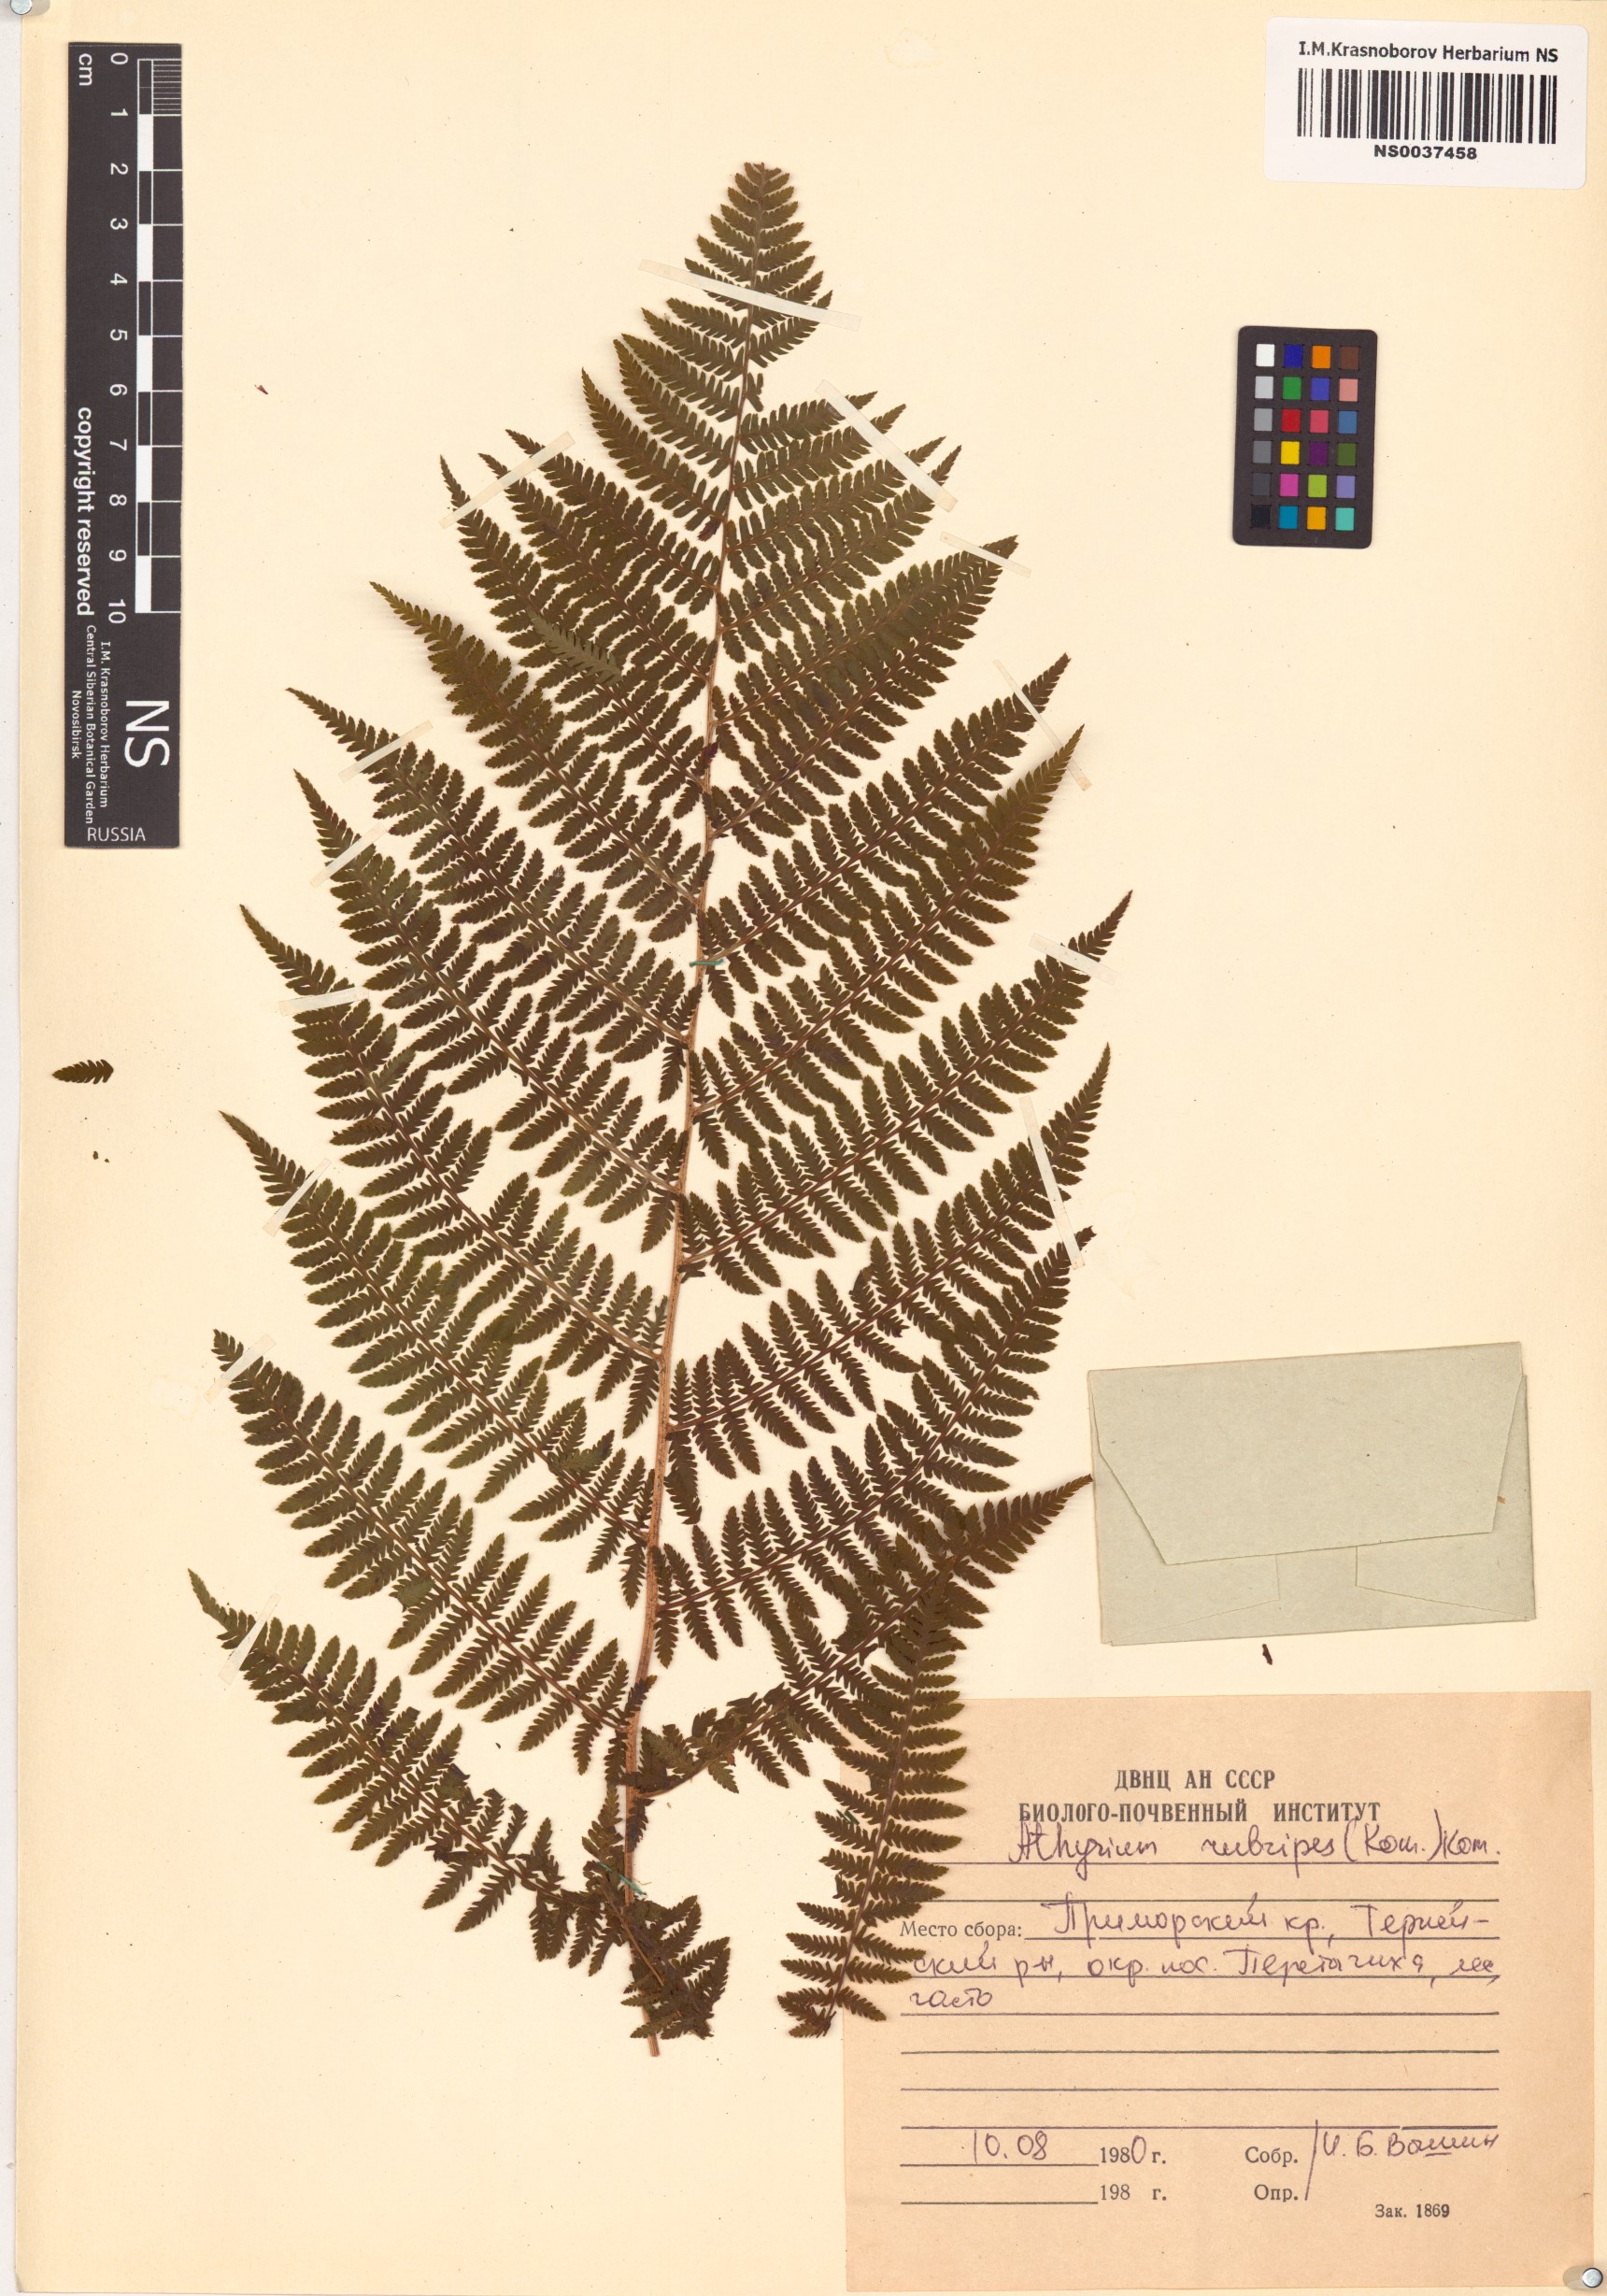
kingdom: Plantae
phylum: Tracheophyta
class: Polypodiopsida
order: Polypodiales
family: Athyriaceae
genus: Athyrium
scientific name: Athyrium rubripes
